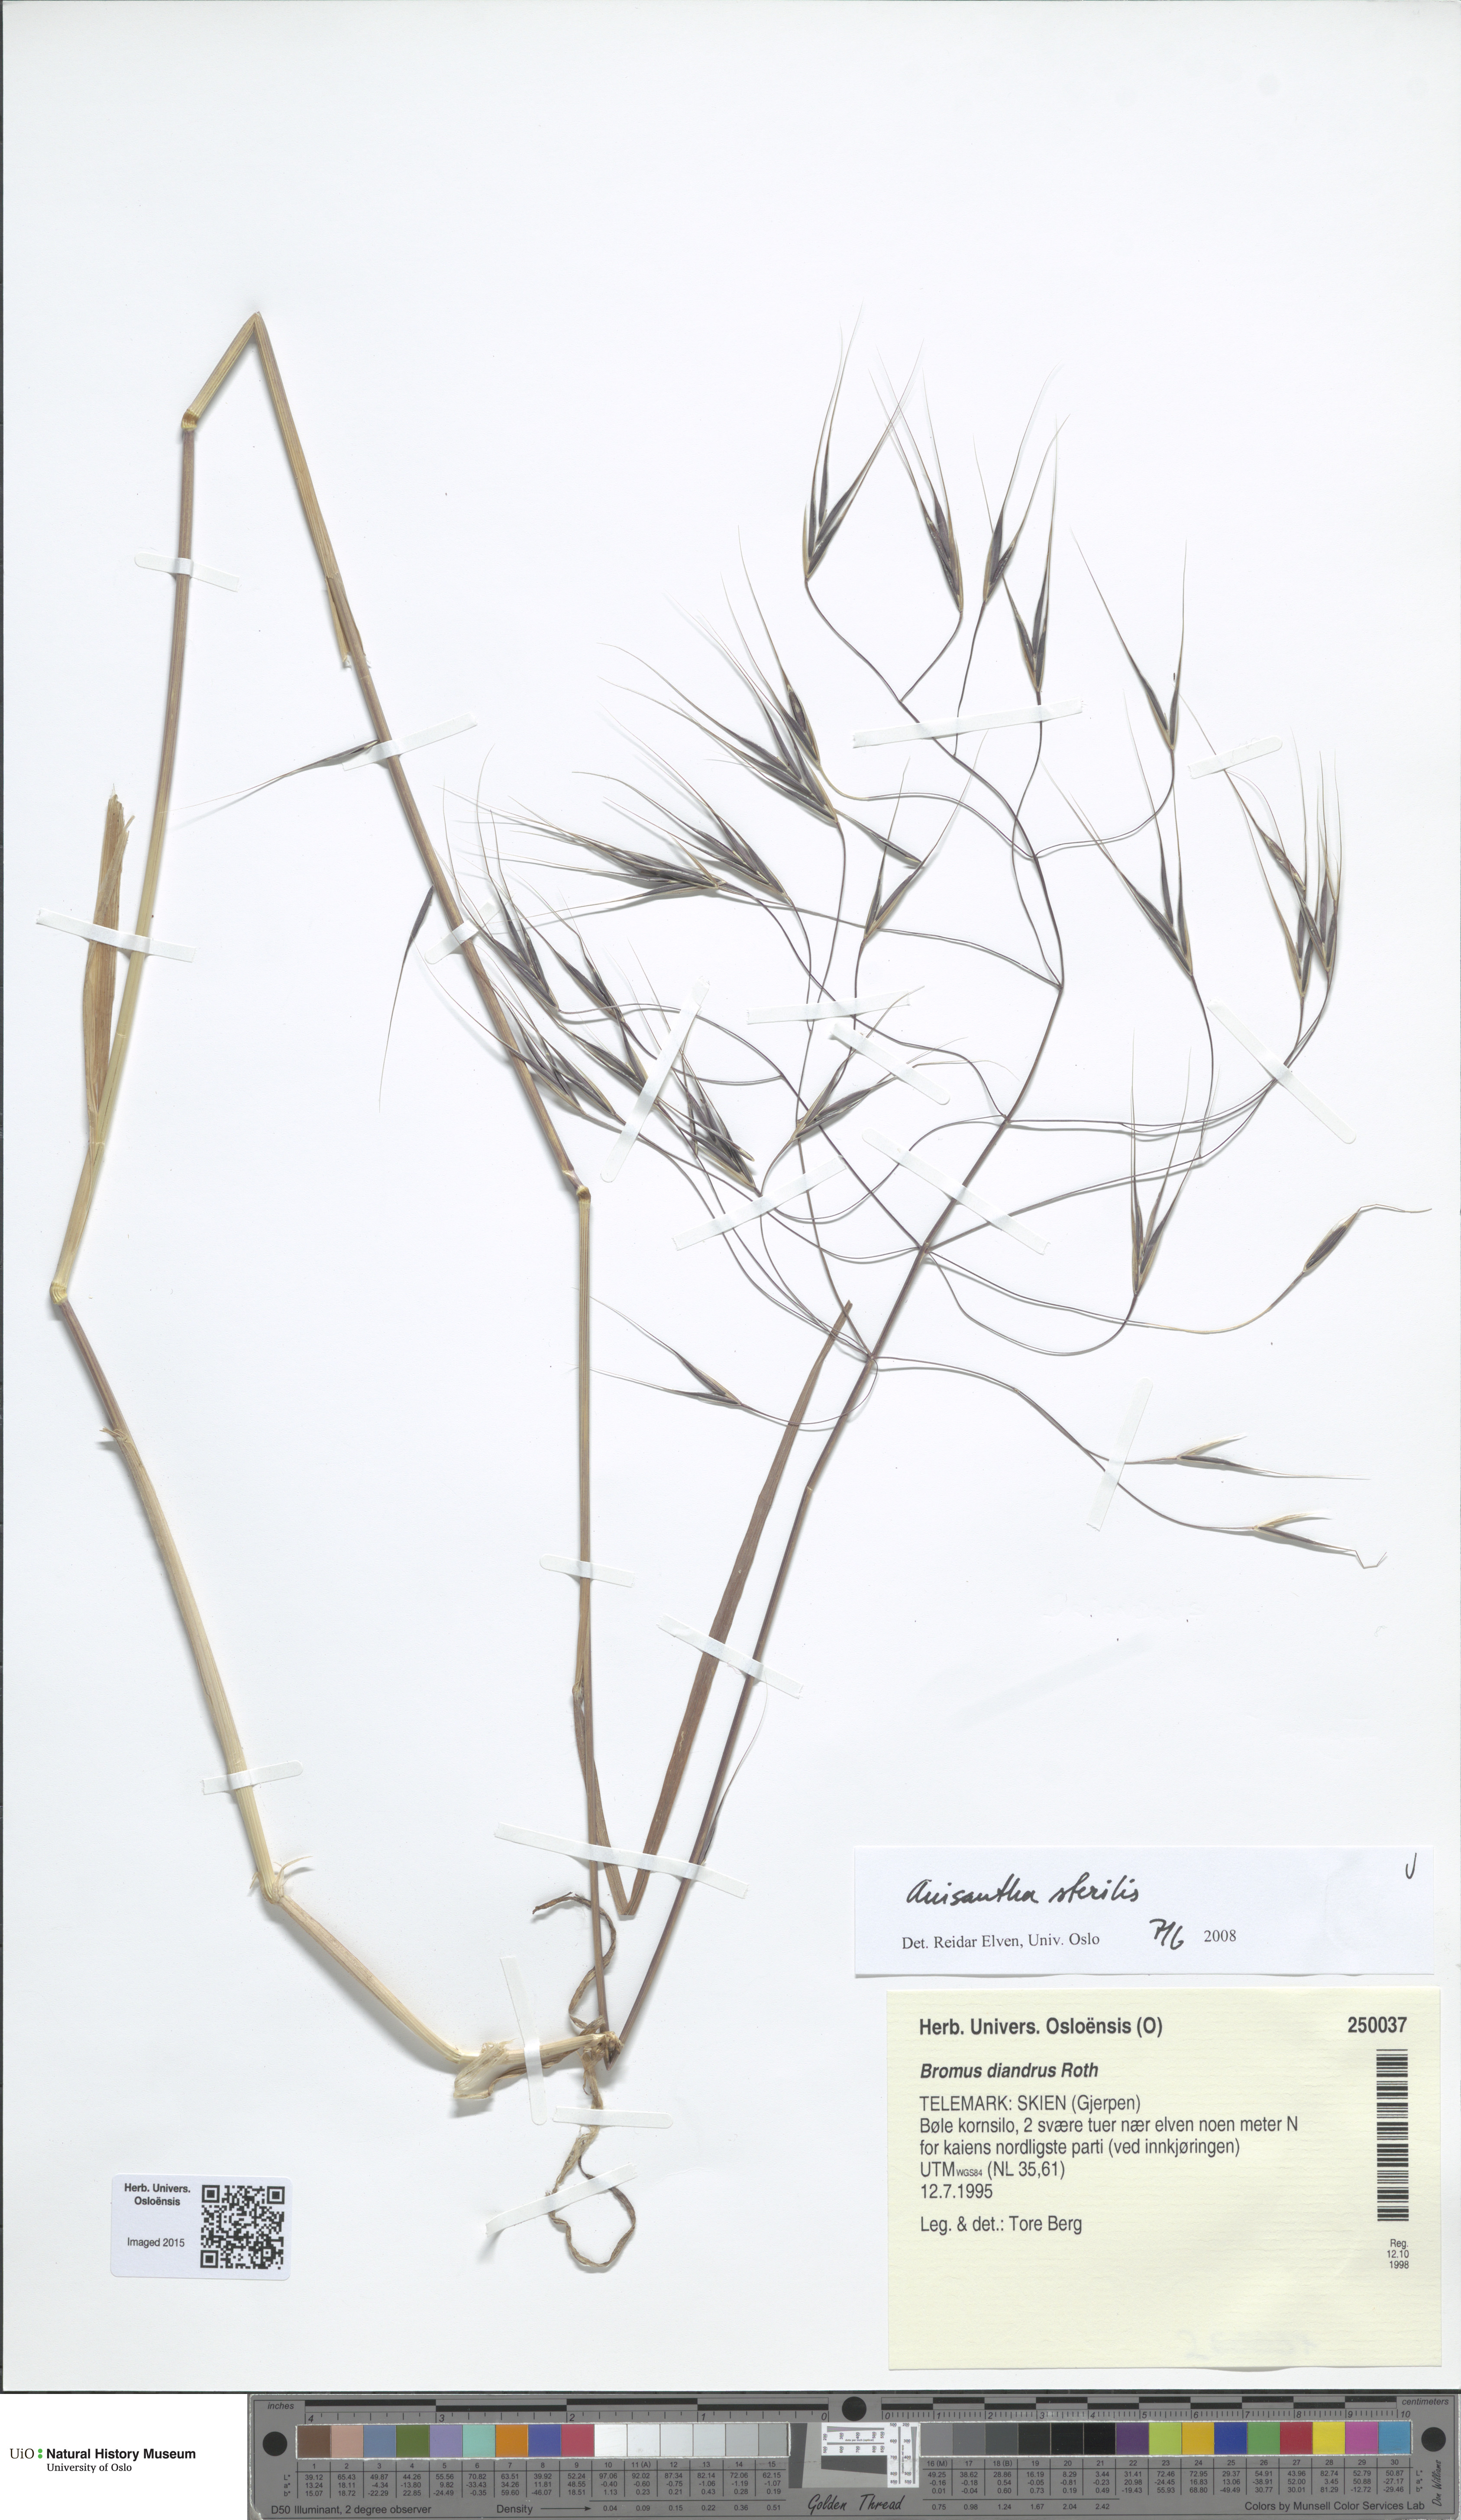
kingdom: Plantae
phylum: Tracheophyta
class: Liliopsida
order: Poales
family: Poaceae
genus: Bromus
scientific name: Bromus sterilis
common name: Poverty brome
